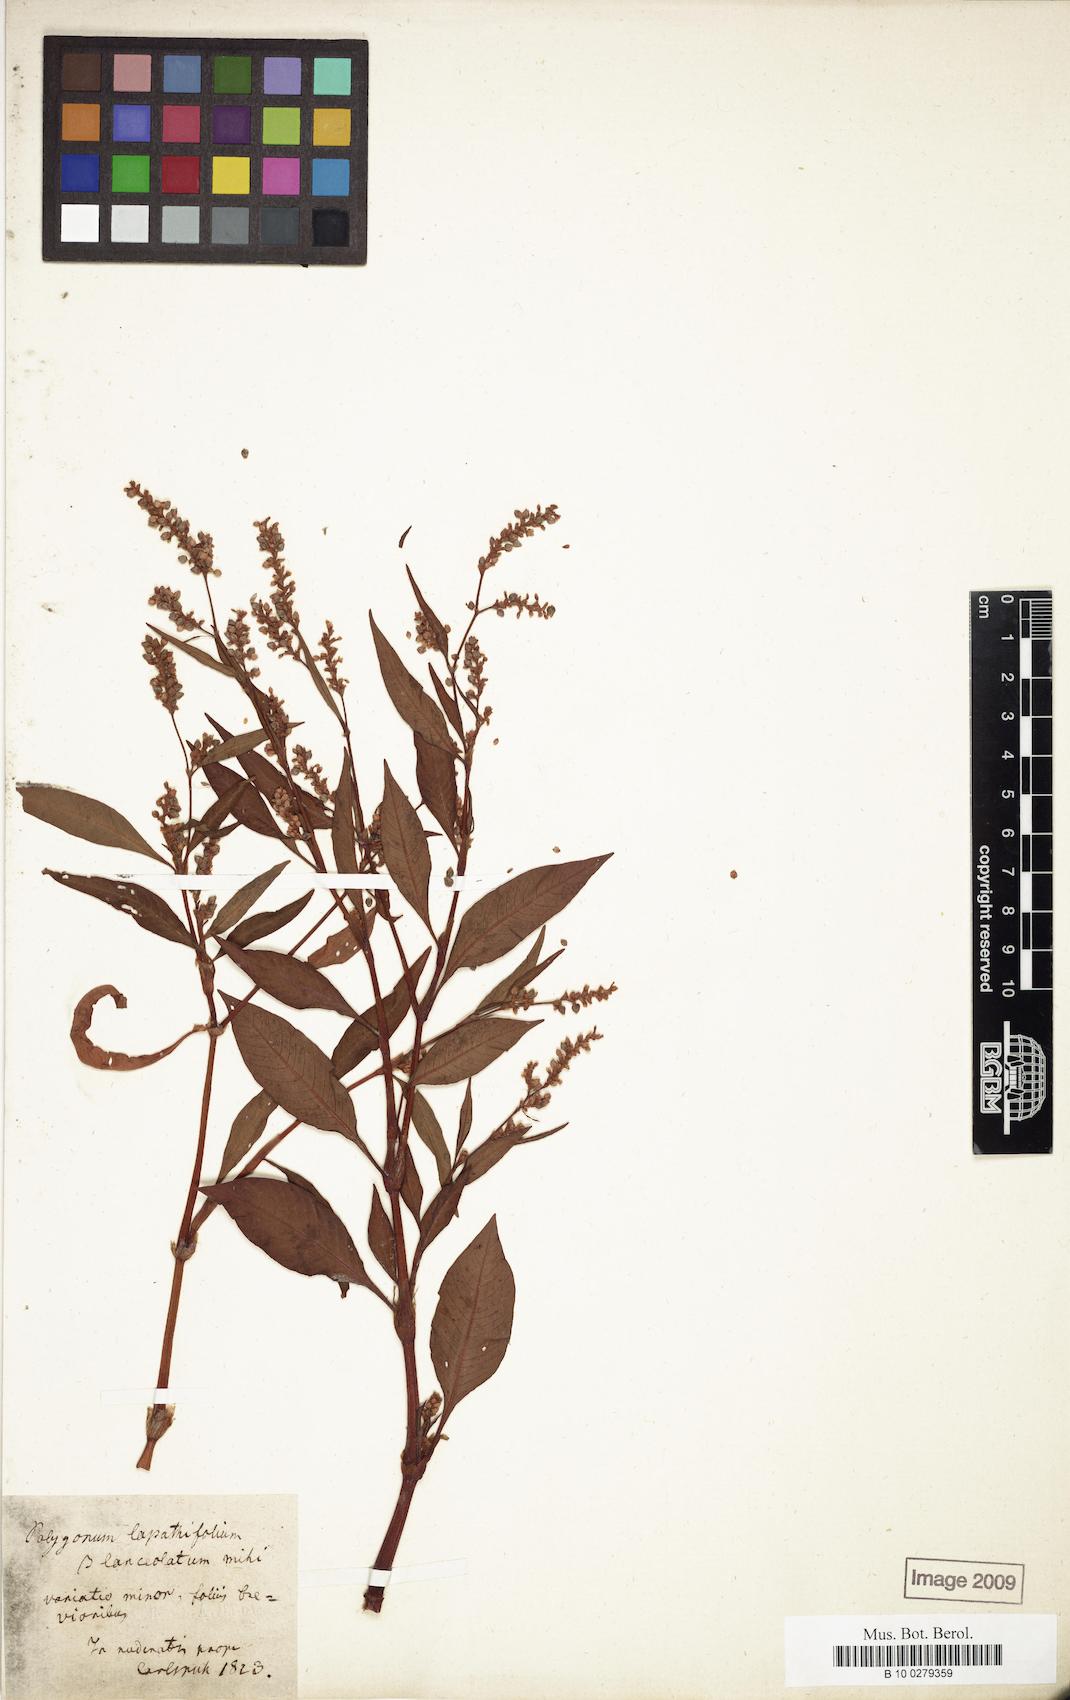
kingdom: Plantae
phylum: Tracheophyta
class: Magnoliopsida
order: Caryophyllales
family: Polygonaceae
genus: Persicaria
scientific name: Persicaria lapathifolia
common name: Curlytop knotweed
